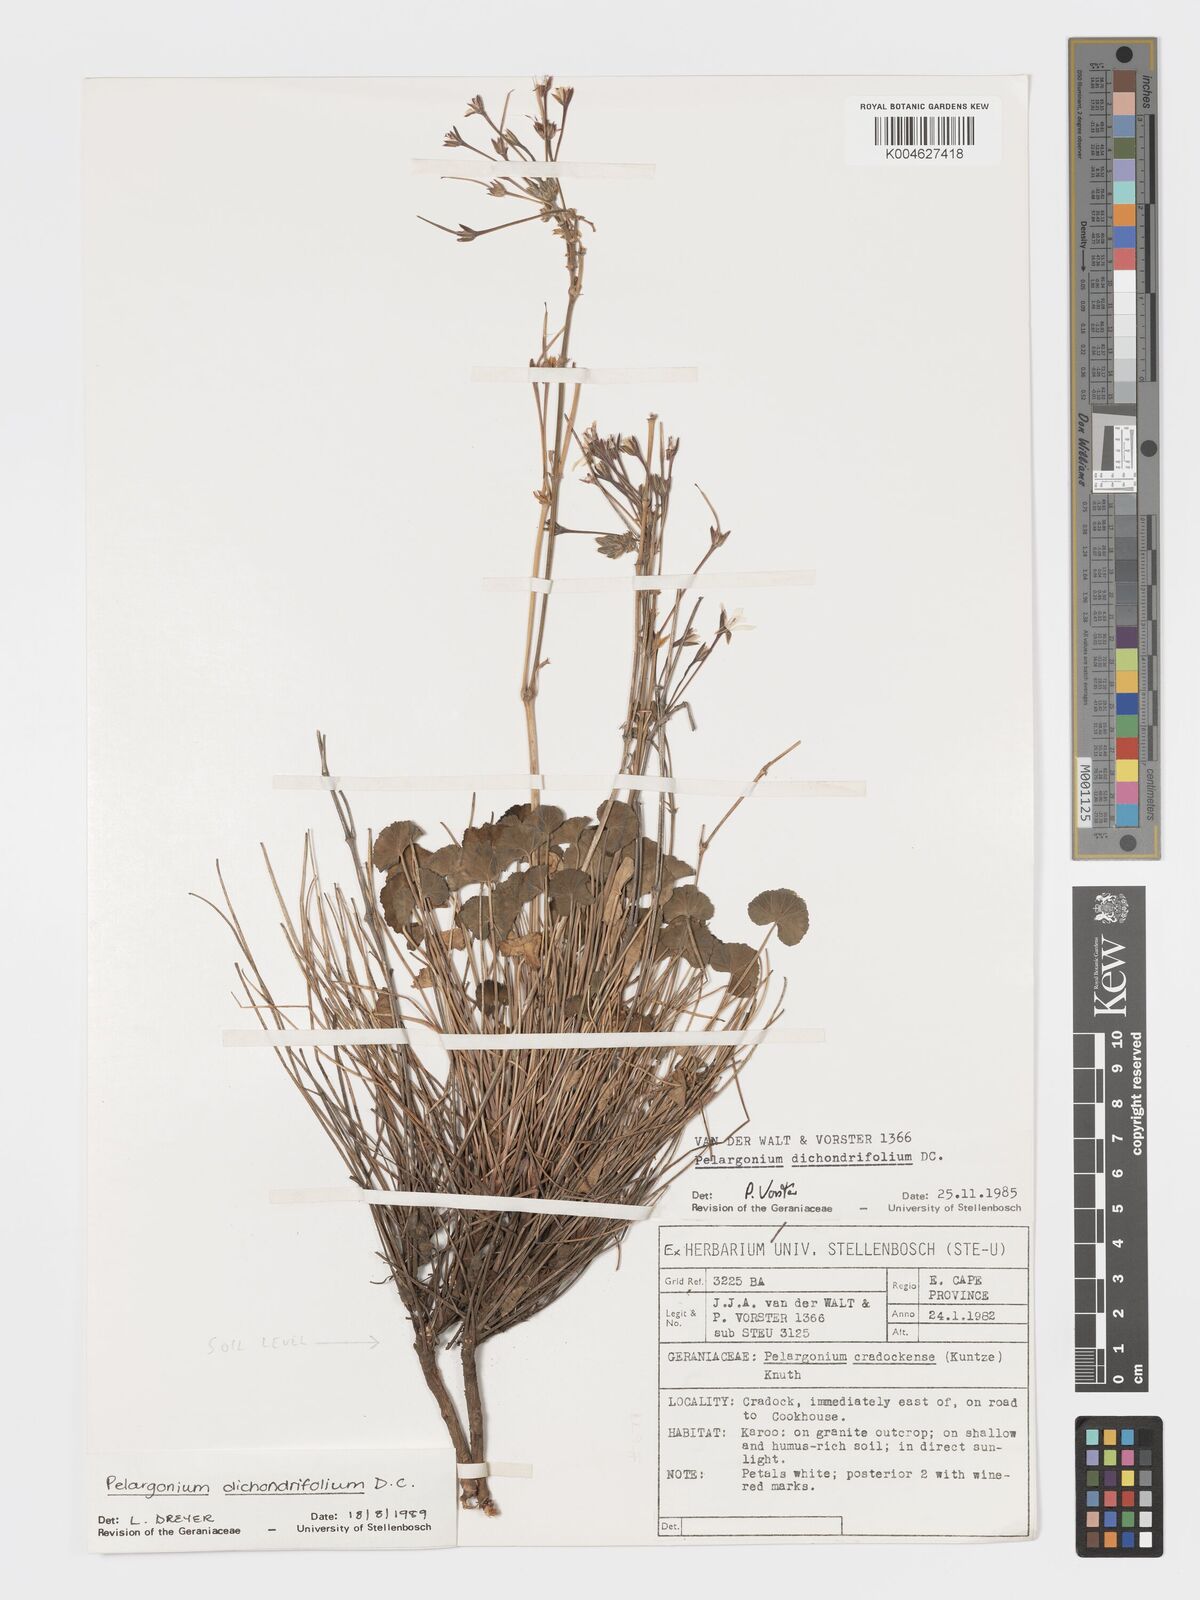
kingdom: Plantae
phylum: Tracheophyta
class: Magnoliopsida
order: Geraniales
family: Geraniaceae
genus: Pelargonium
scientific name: Pelargonium dichondrifolium
